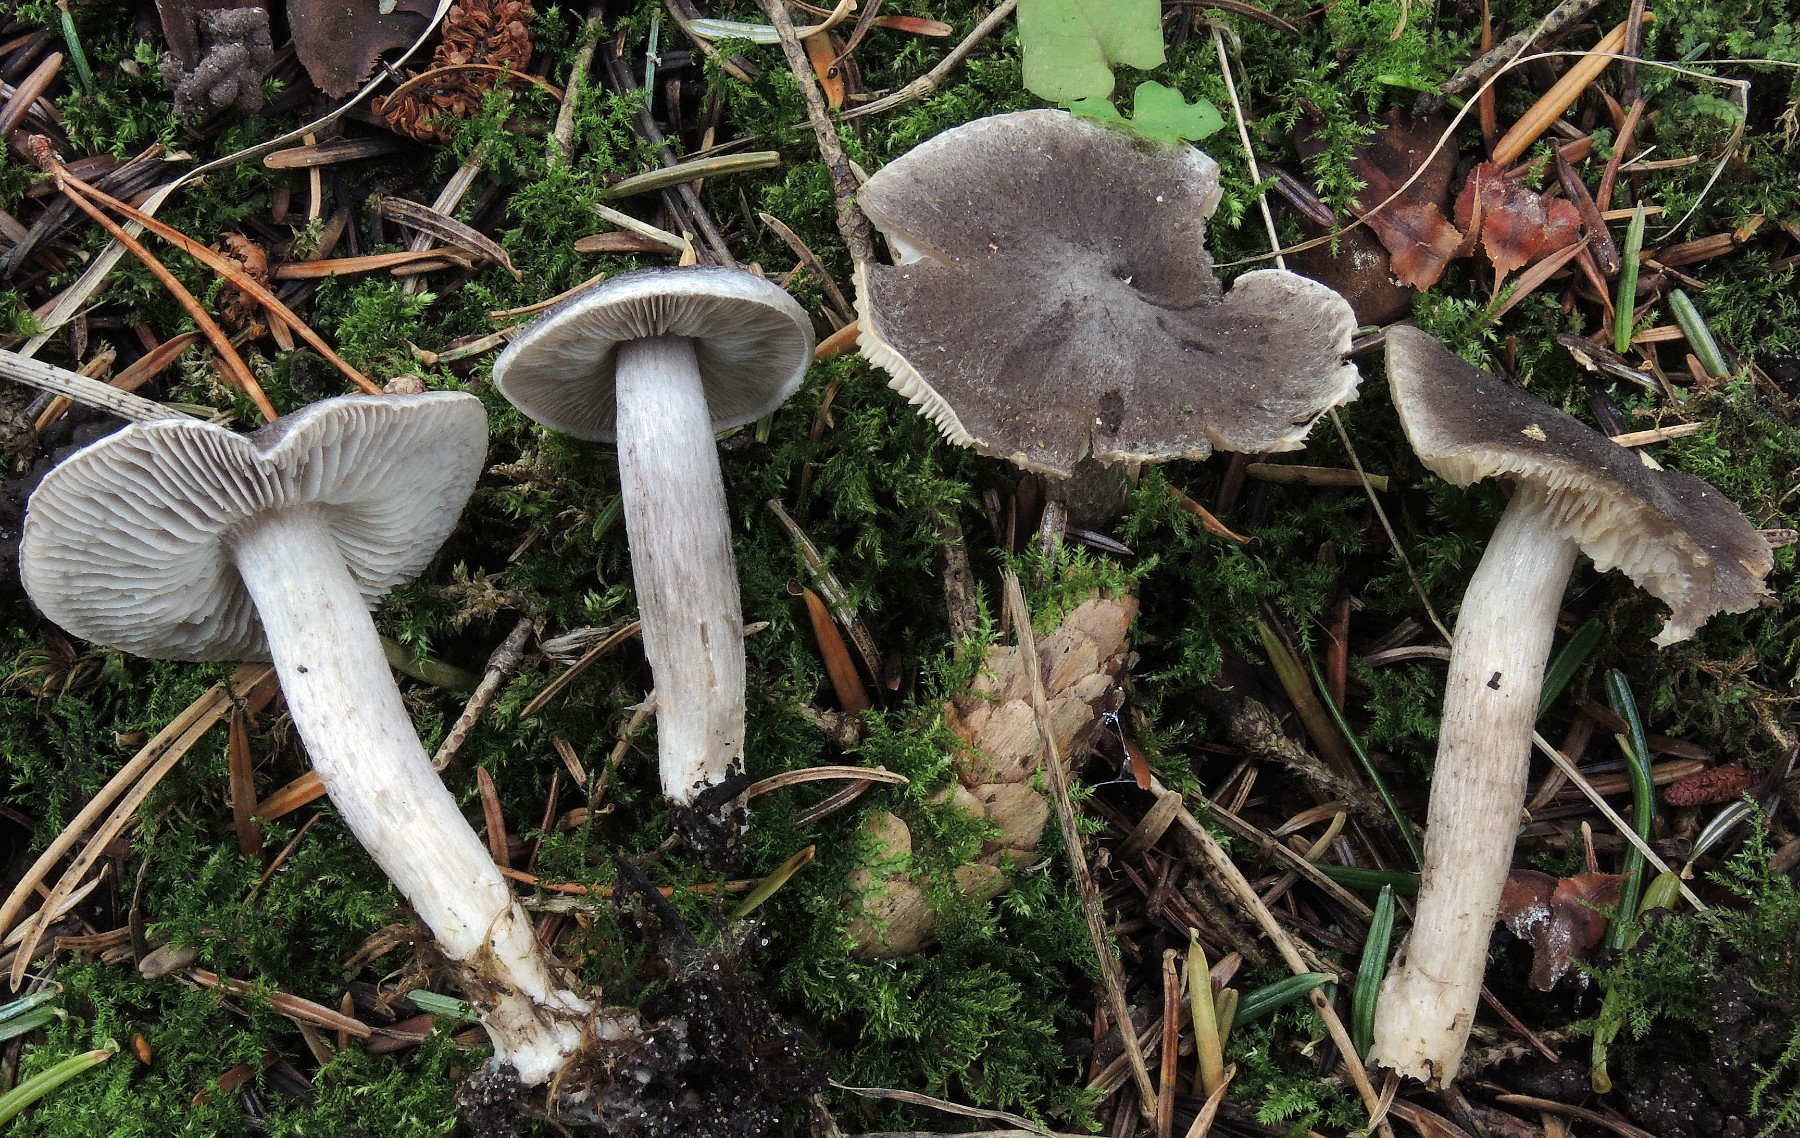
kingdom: Fungi
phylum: Basidiomycota
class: Agaricomycetes
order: Agaricales
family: Tricholomataceae
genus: Tricholoma
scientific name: Tricholoma triste
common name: trist ridderhat
